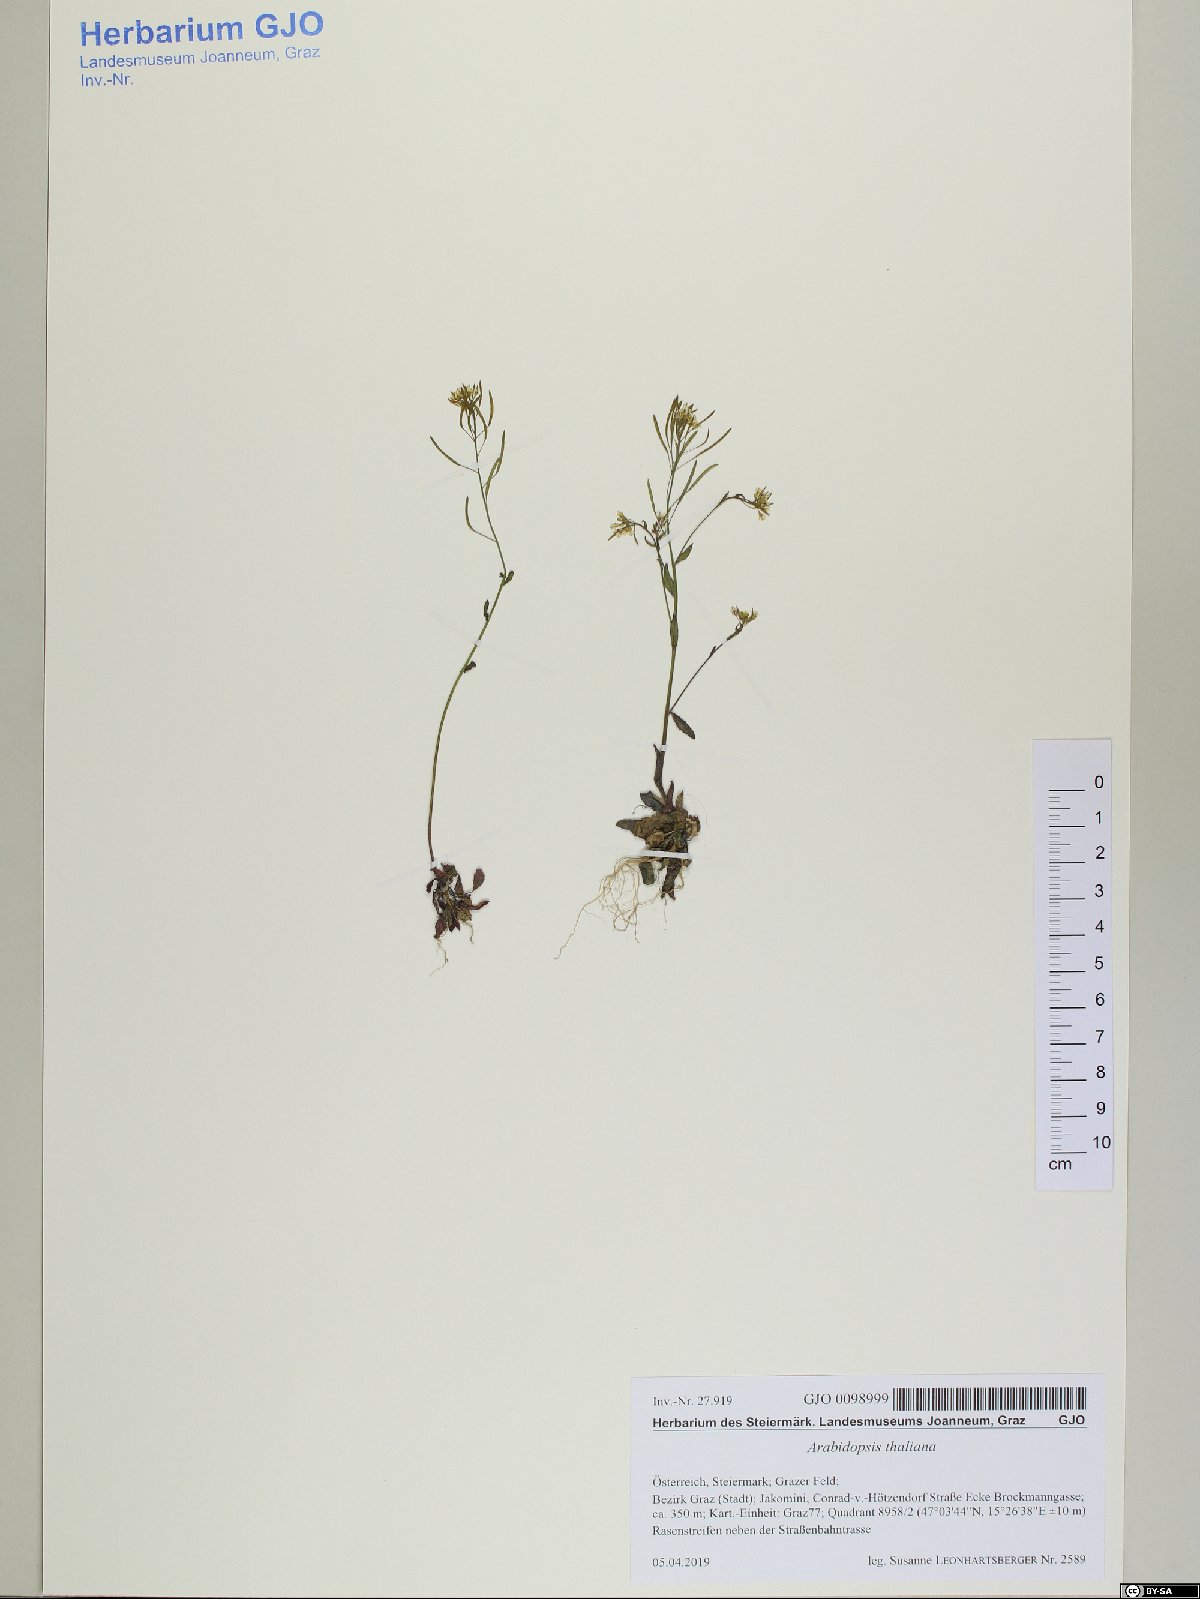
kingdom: Plantae
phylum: Tracheophyta
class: Magnoliopsida
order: Brassicales
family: Brassicaceae
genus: Arabidopsis
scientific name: Arabidopsis thaliana
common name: Thale cress
